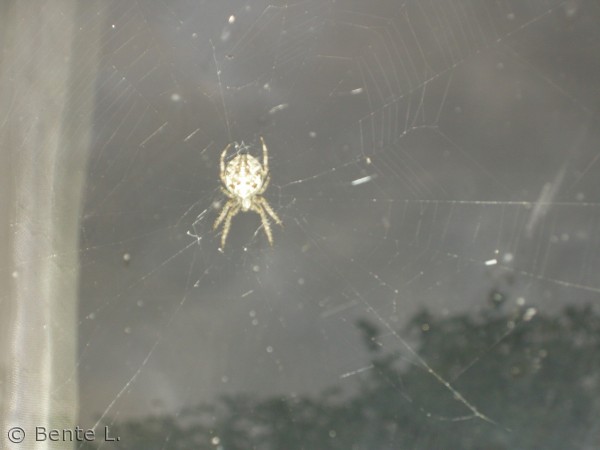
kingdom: Animalia
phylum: Arthropoda
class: Arachnida
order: Araneae
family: Araneidae
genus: Araneus
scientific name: Araneus diadematus
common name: Korsedderkop
